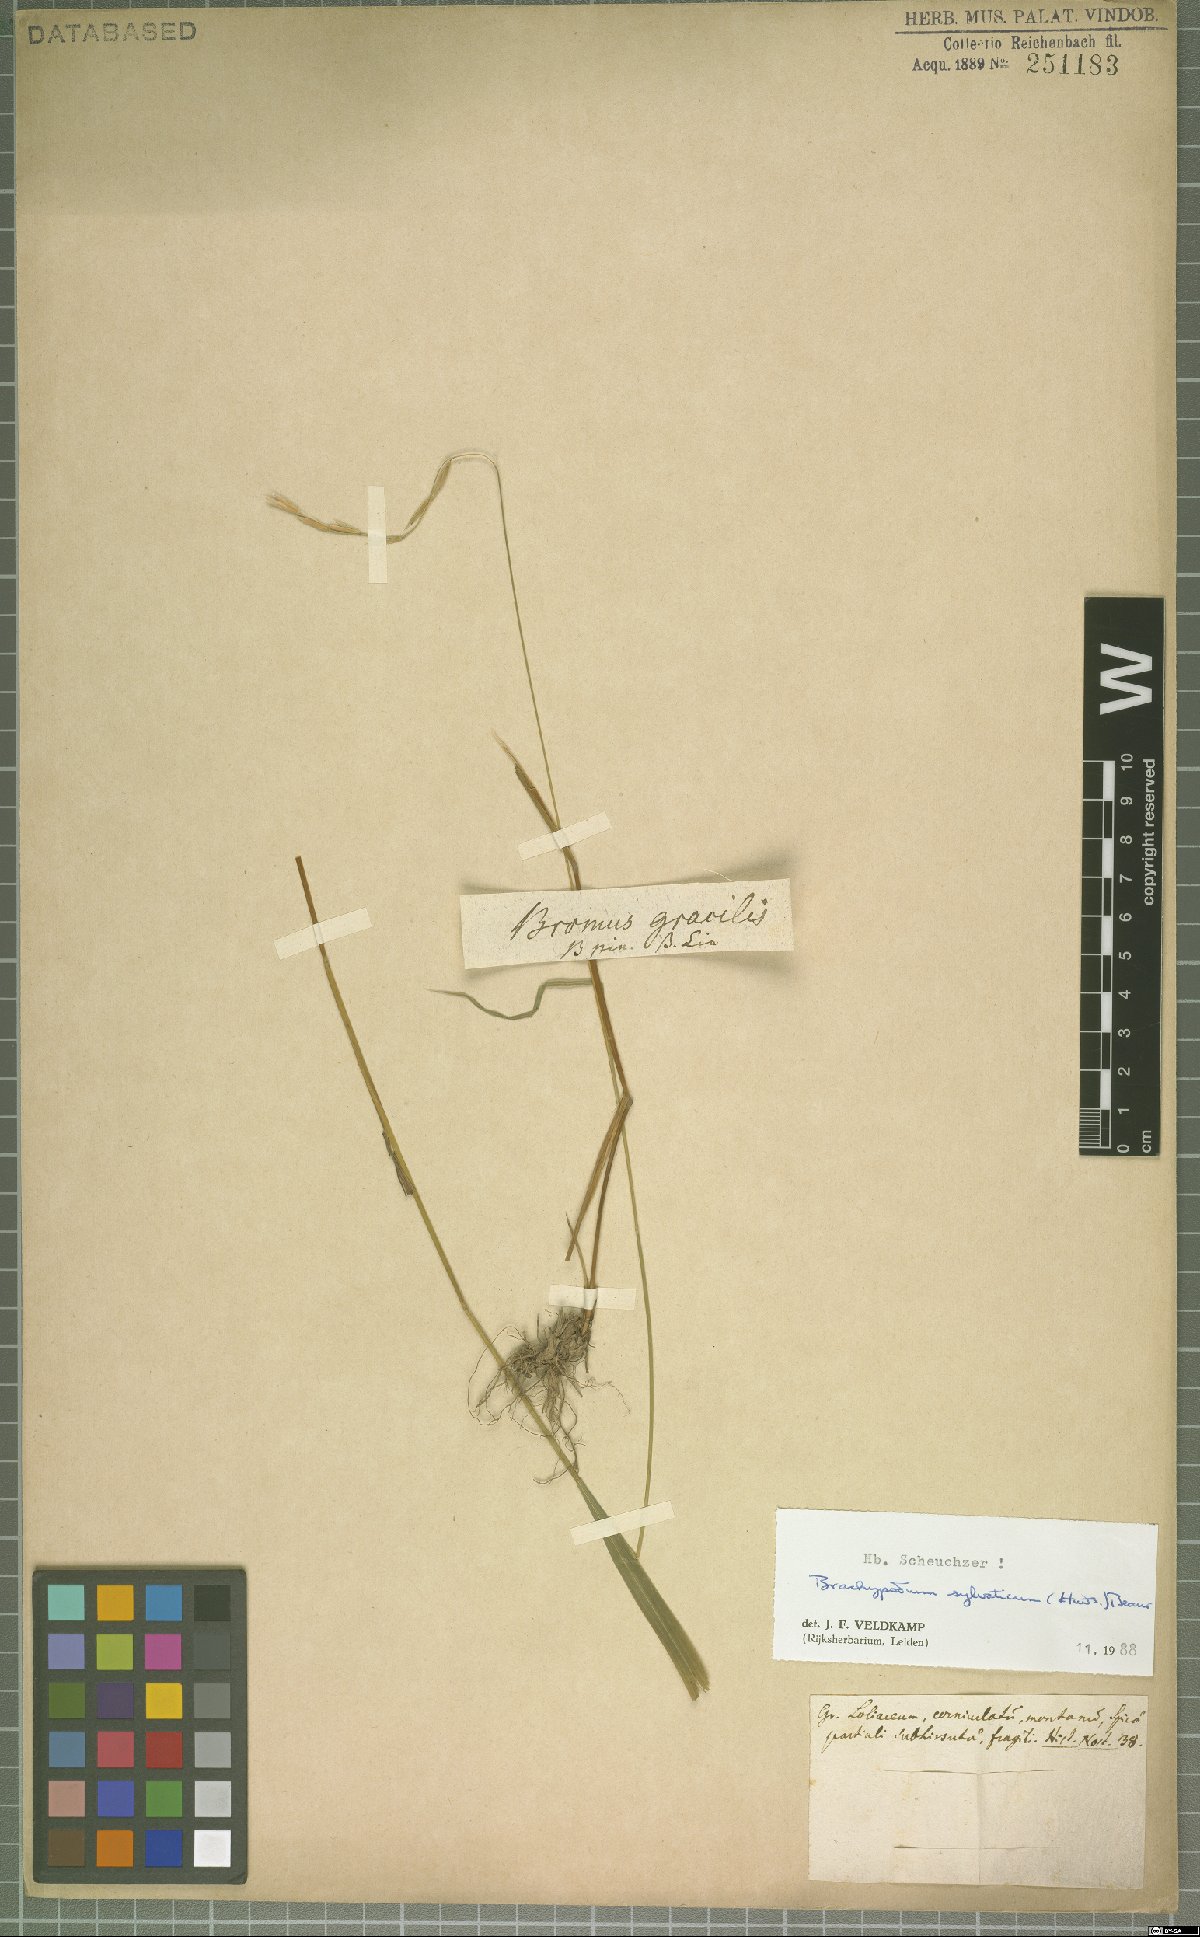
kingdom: Plantae
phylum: Tracheophyta
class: Liliopsida
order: Poales
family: Poaceae
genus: Brachypodium
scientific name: Brachypodium sylvaticum
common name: False-brome
